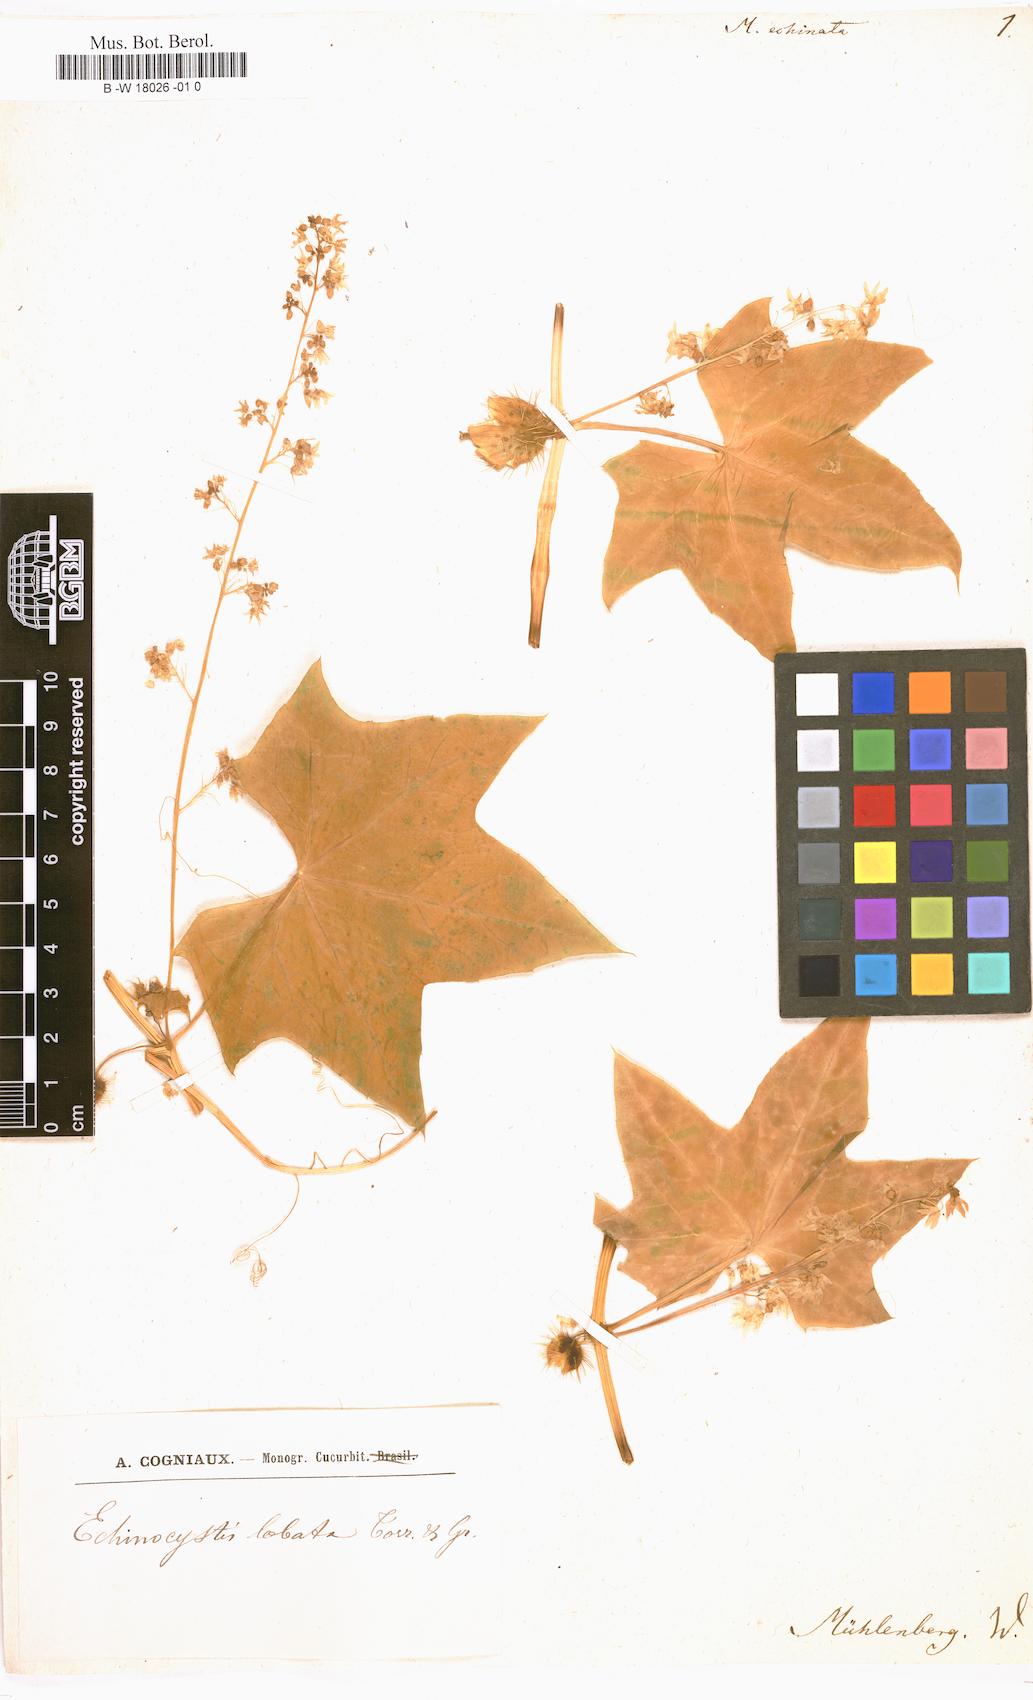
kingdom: Plantae
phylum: Tracheophyta
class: Magnoliopsida
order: Cucurbitales
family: Cucurbitaceae
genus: Echinocystis
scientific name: Echinocystis lobata
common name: Wild cucumber
